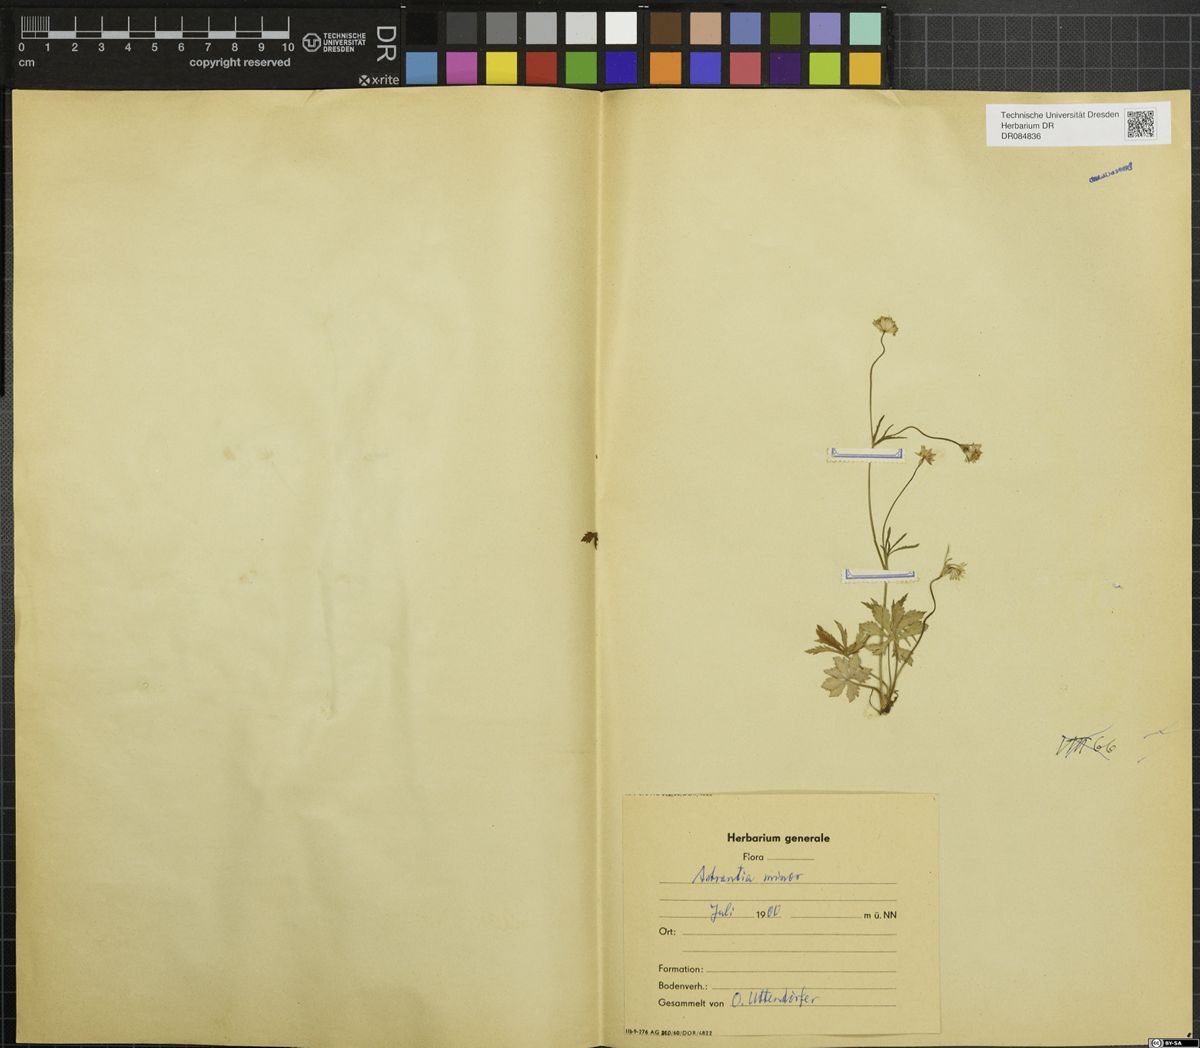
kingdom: Plantae
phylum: Tracheophyta
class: Magnoliopsida
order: Apiales
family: Apiaceae
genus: Astrantia
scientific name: Astrantia minor
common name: Lesser masterwort
